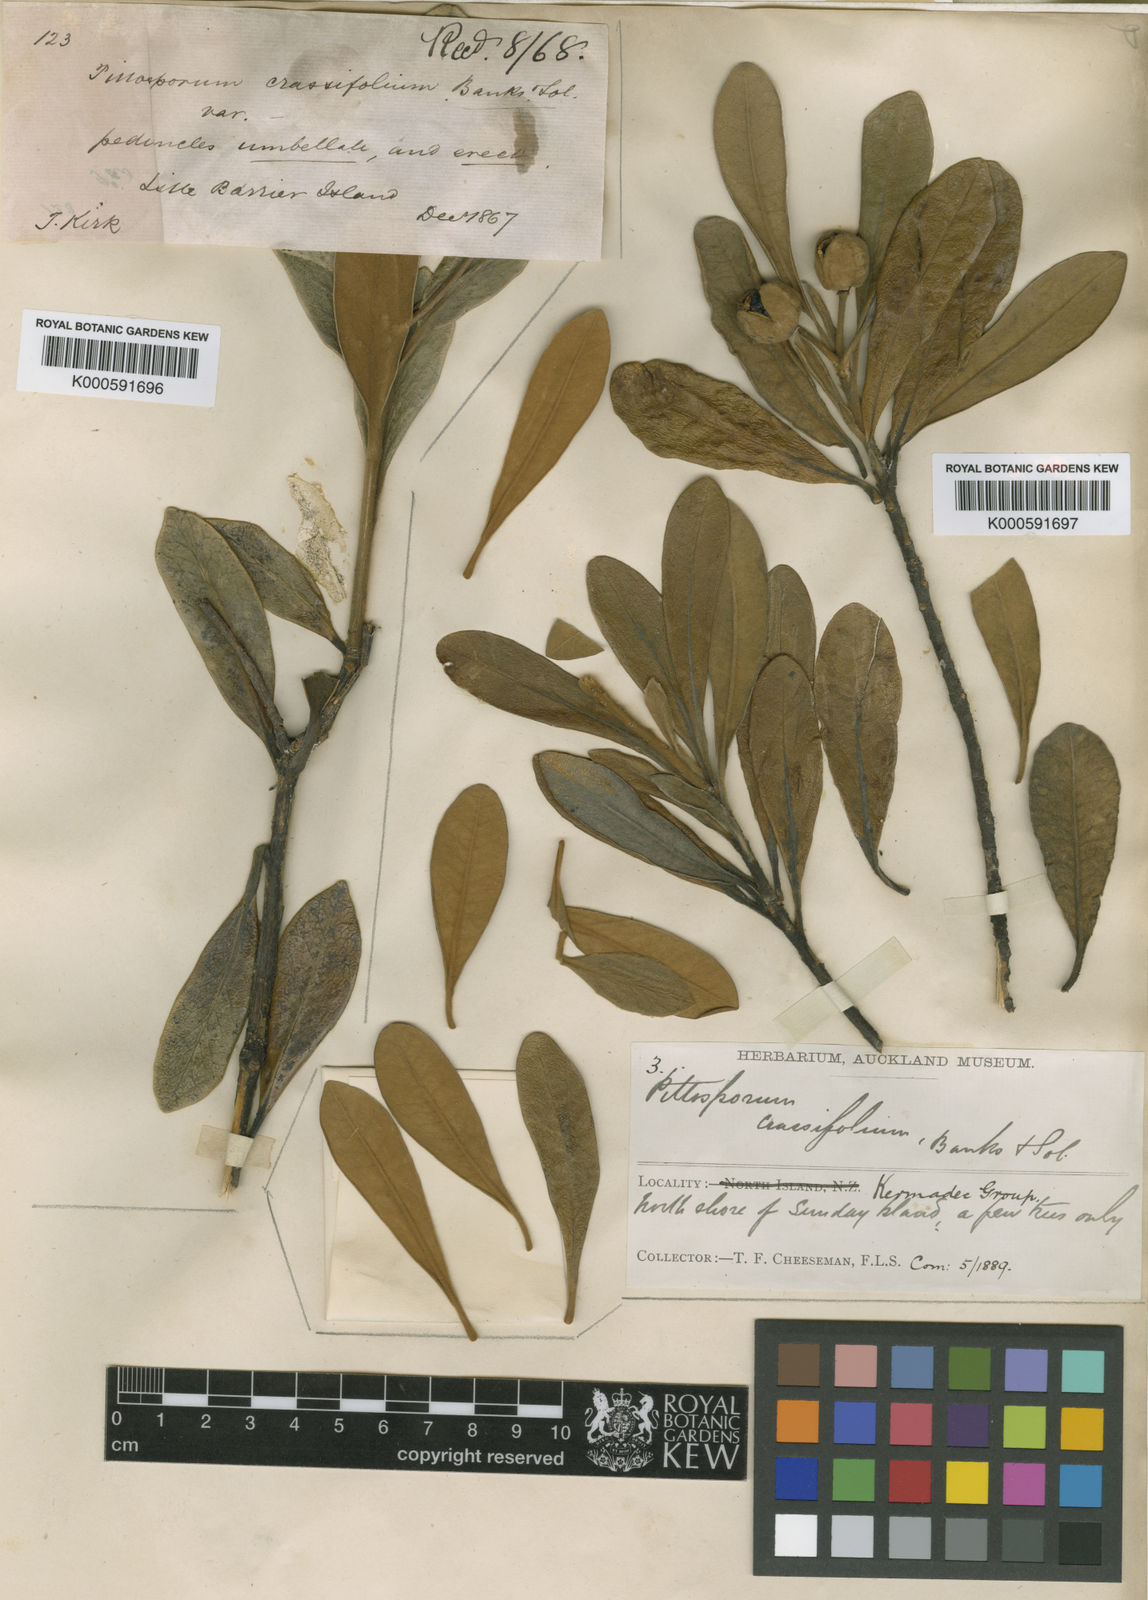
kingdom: Plantae
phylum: Tracheophyta
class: Magnoliopsida
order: Apiales
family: Pittosporaceae
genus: Pittosporum
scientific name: Pittosporum crassifolium
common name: Karo
